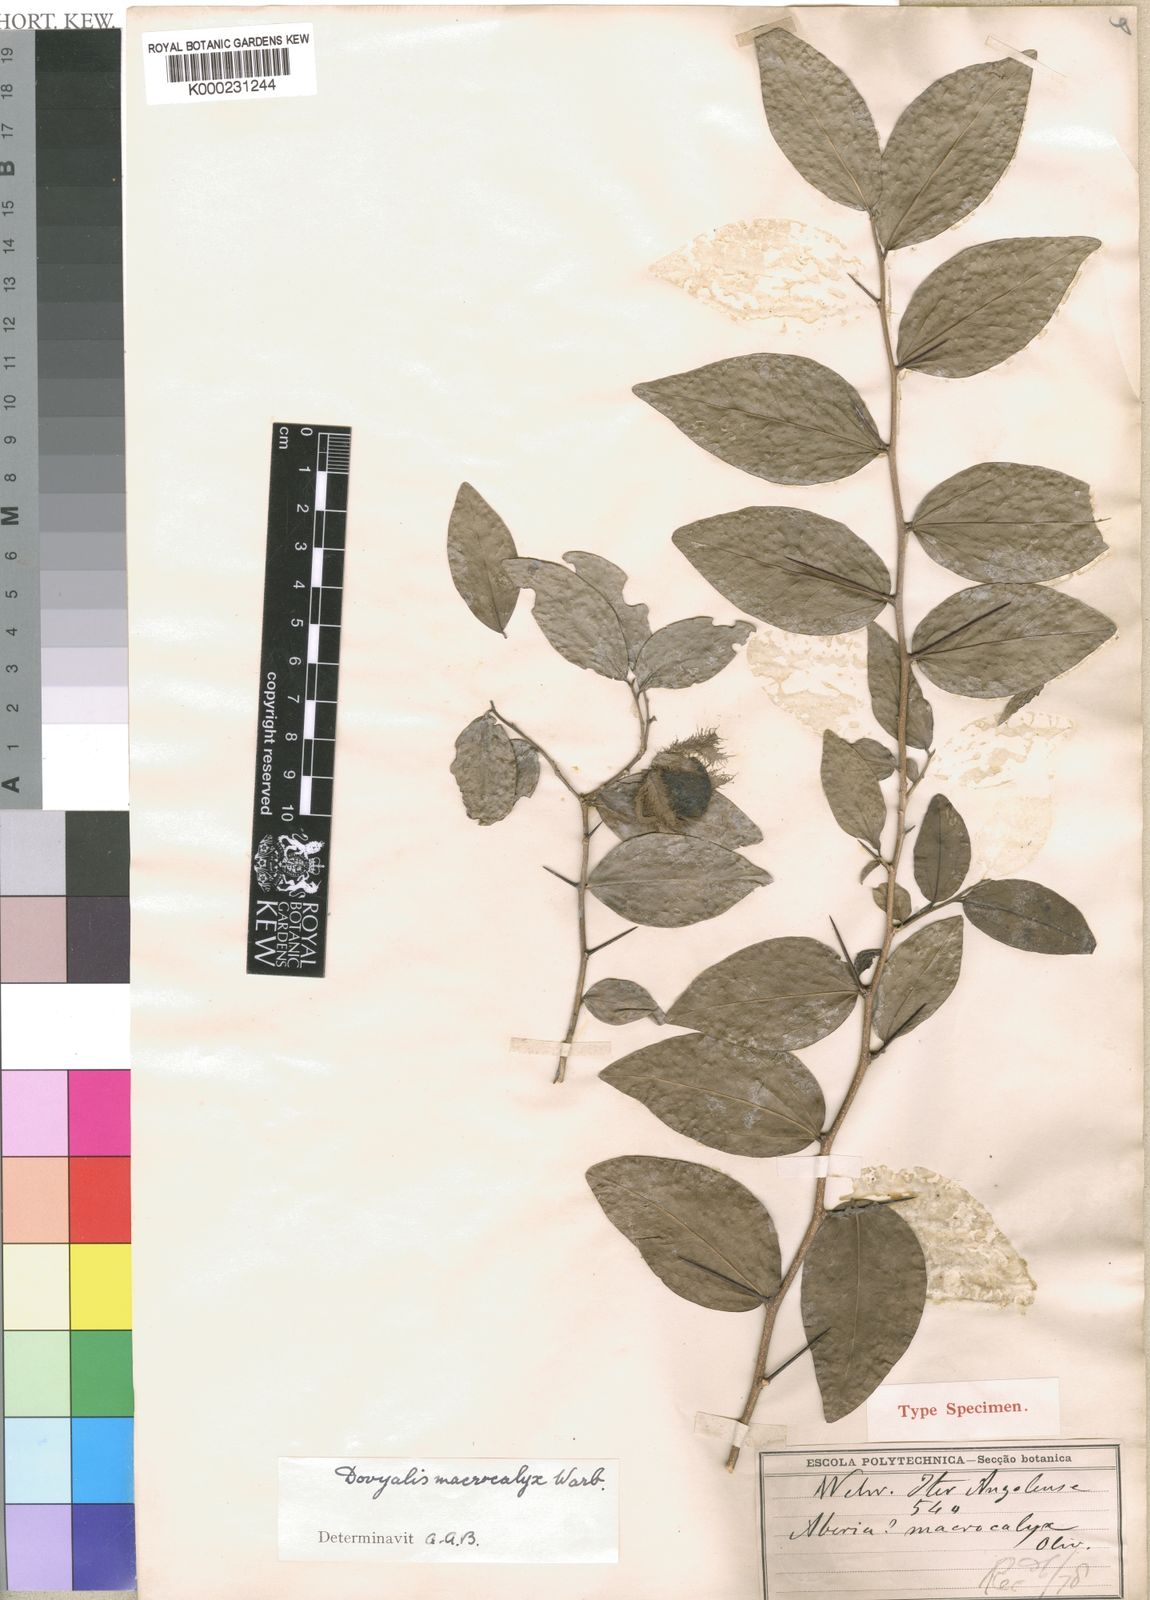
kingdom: Plantae
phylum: Tracheophyta
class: Magnoliopsida
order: Malpighiales
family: Salicaceae
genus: Dovyalis
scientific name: Dovyalis macrocalyx
